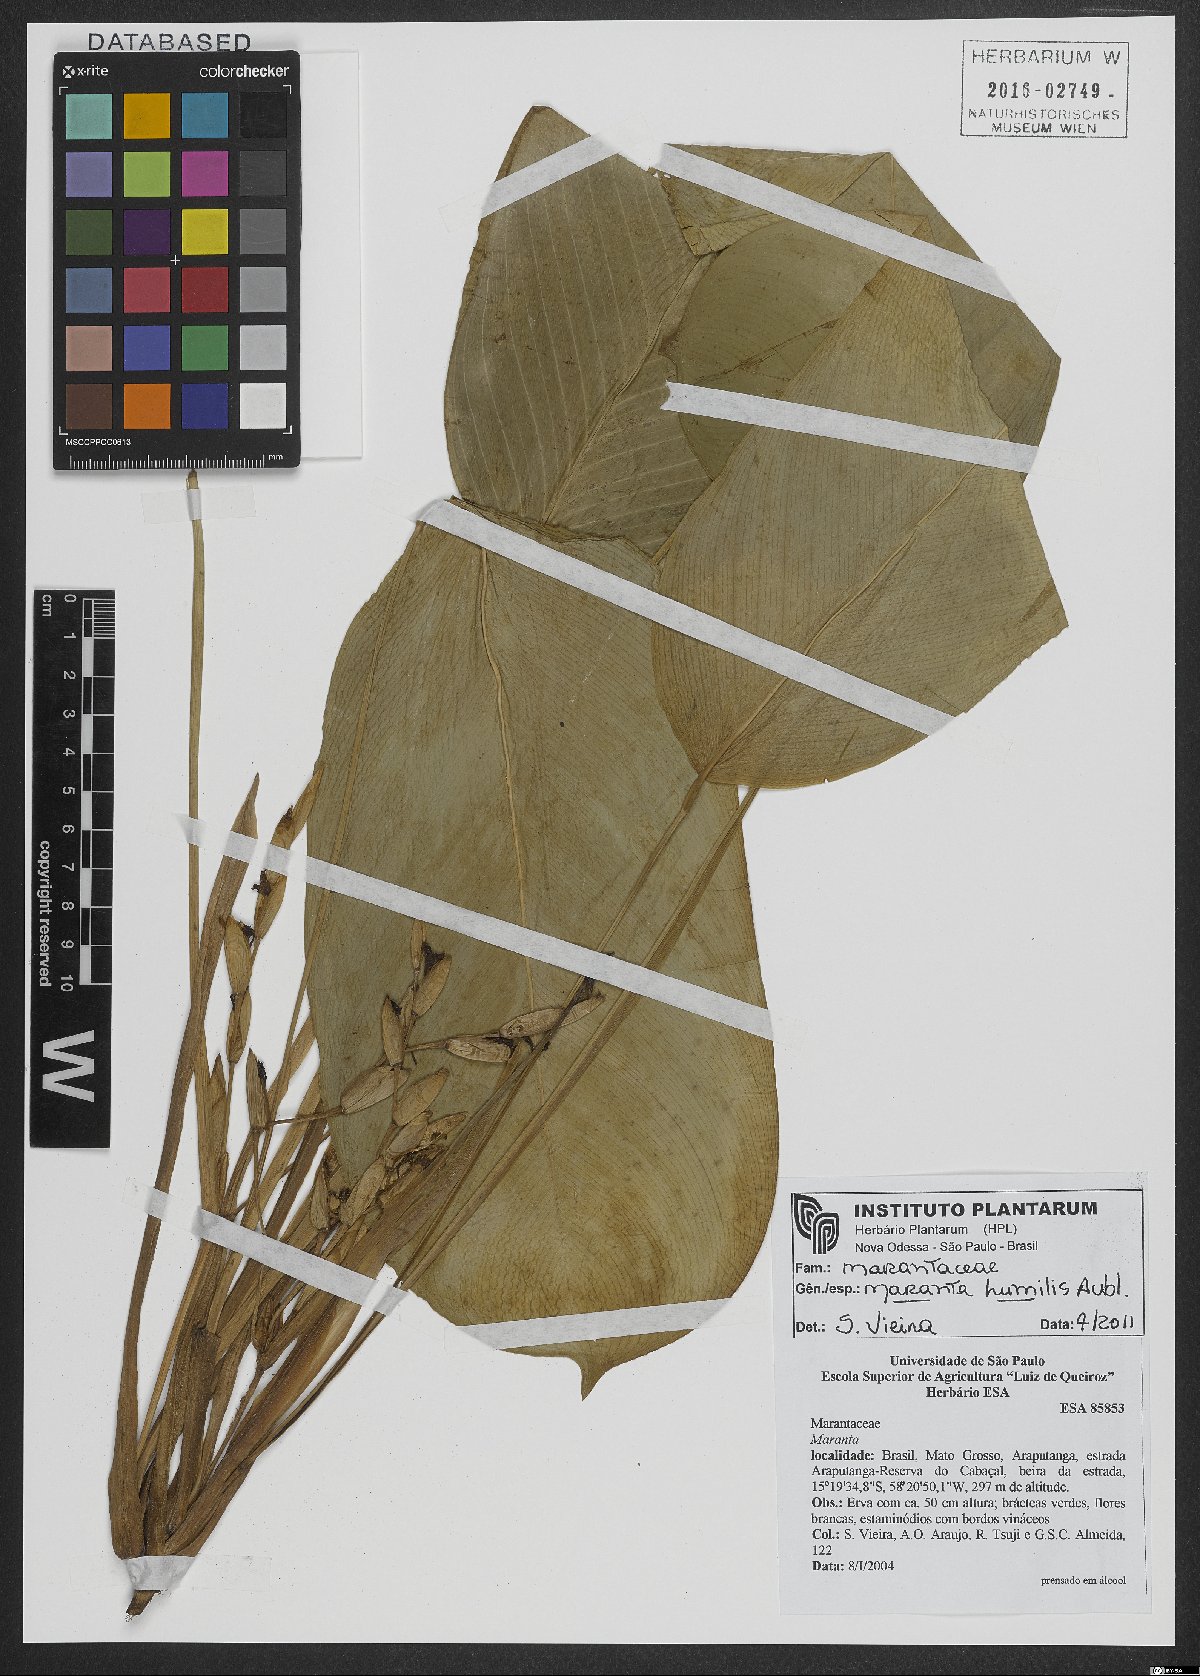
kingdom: Plantae
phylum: Tracheophyta
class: Liliopsida
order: Zingiberales
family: Marantaceae
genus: Maranta
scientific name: Maranta humilis
